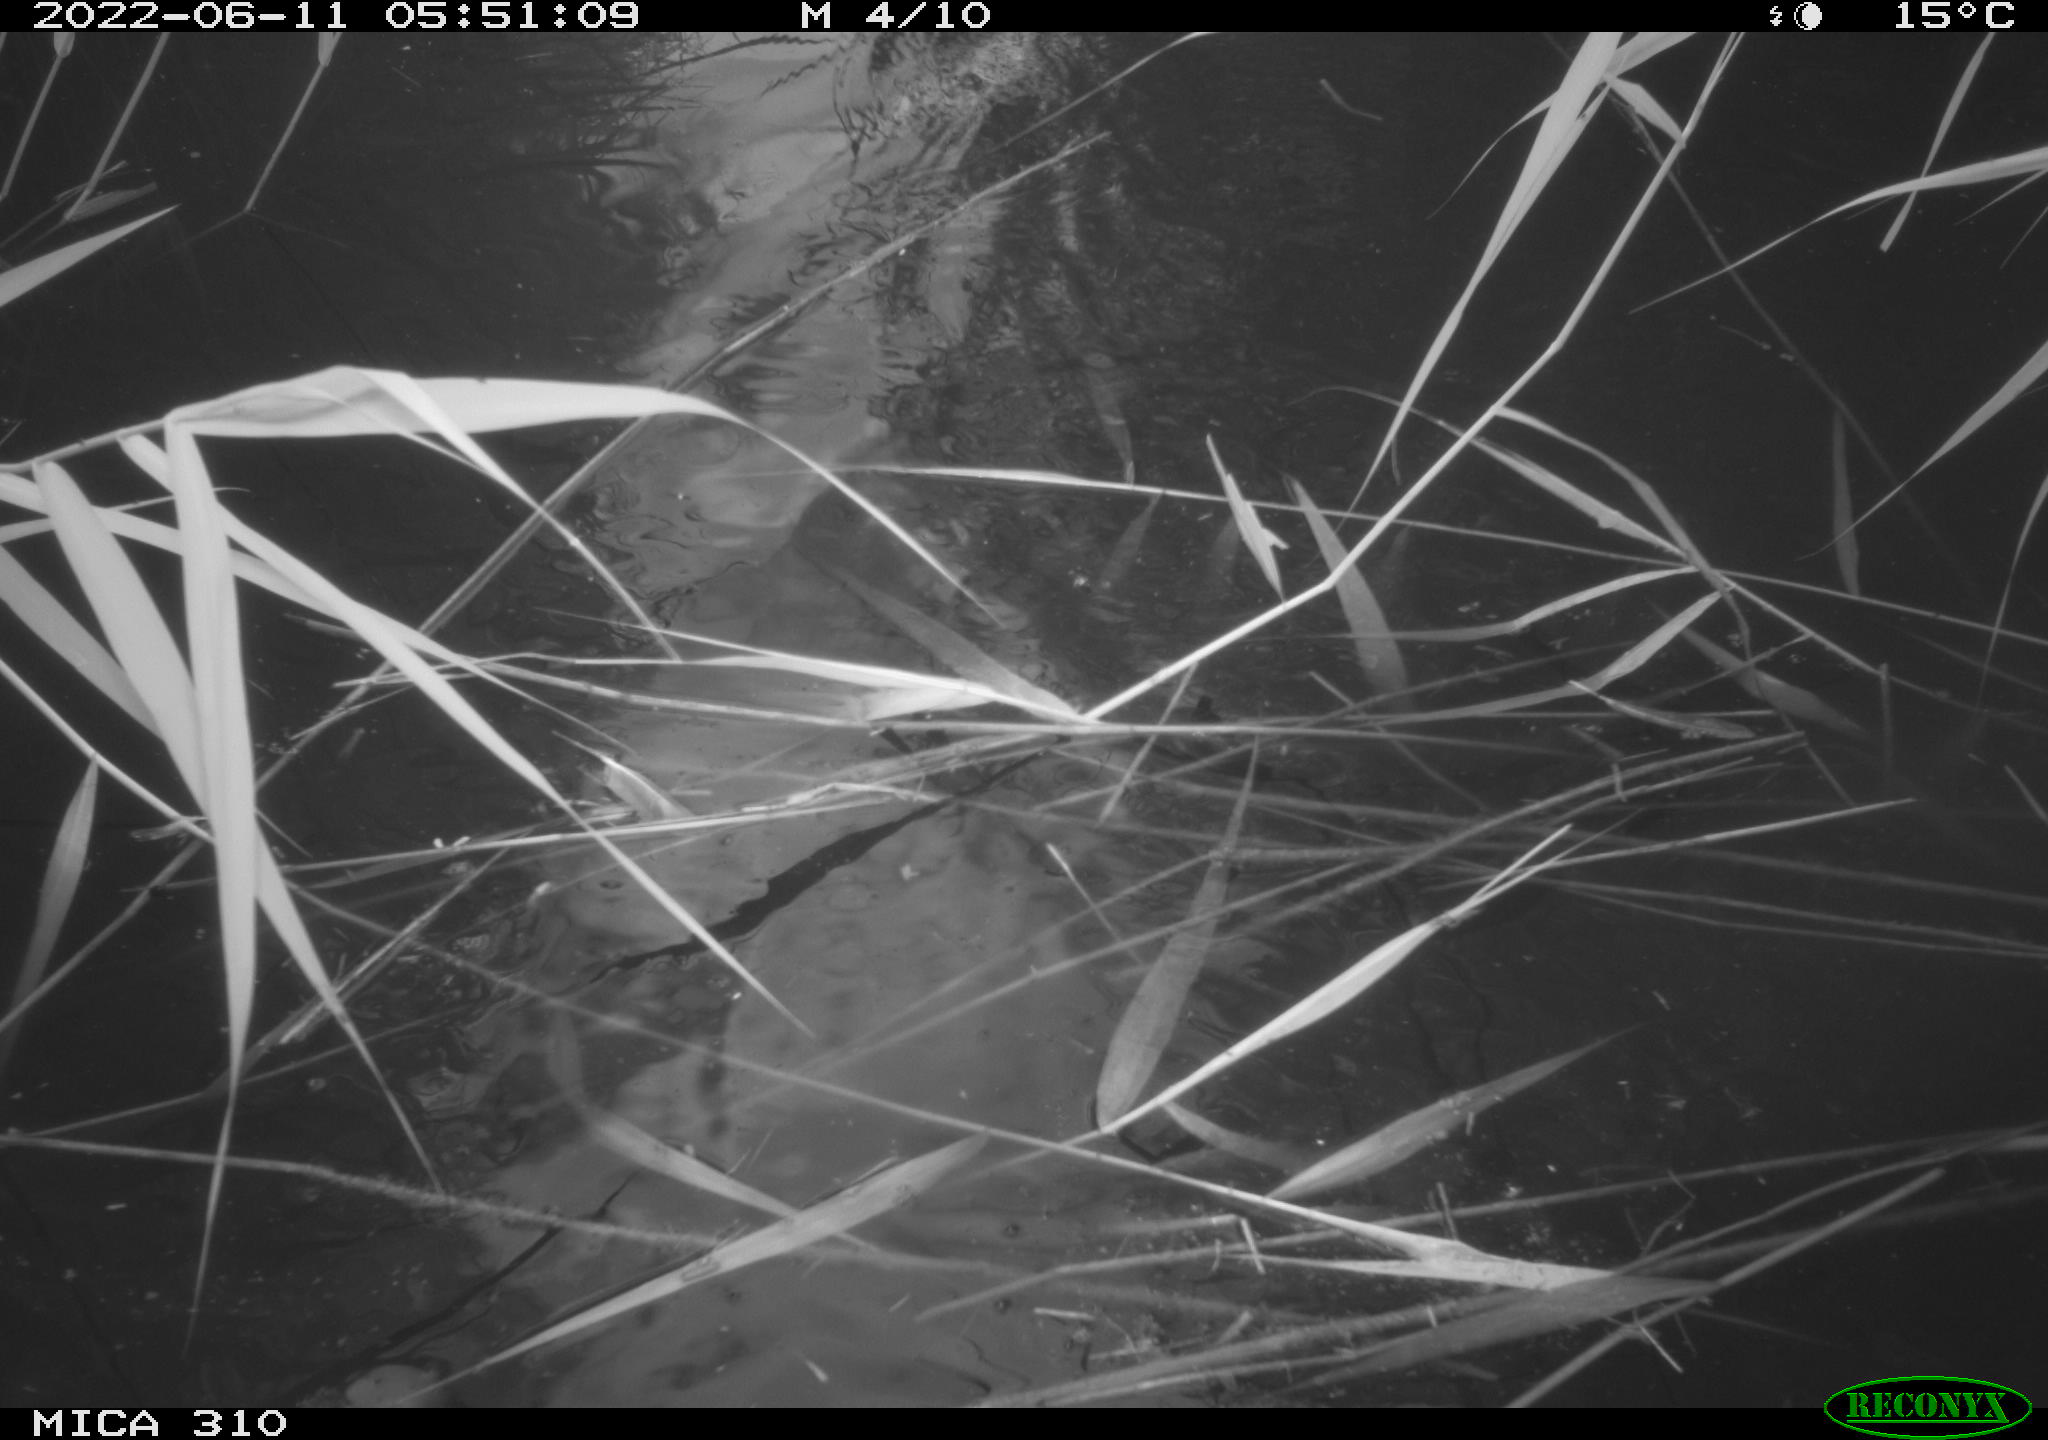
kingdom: Animalia
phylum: Chordata
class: Aves
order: Anseriformes
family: Anatidae
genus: Anas
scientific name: Anas platyrhynchos
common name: Mallard
